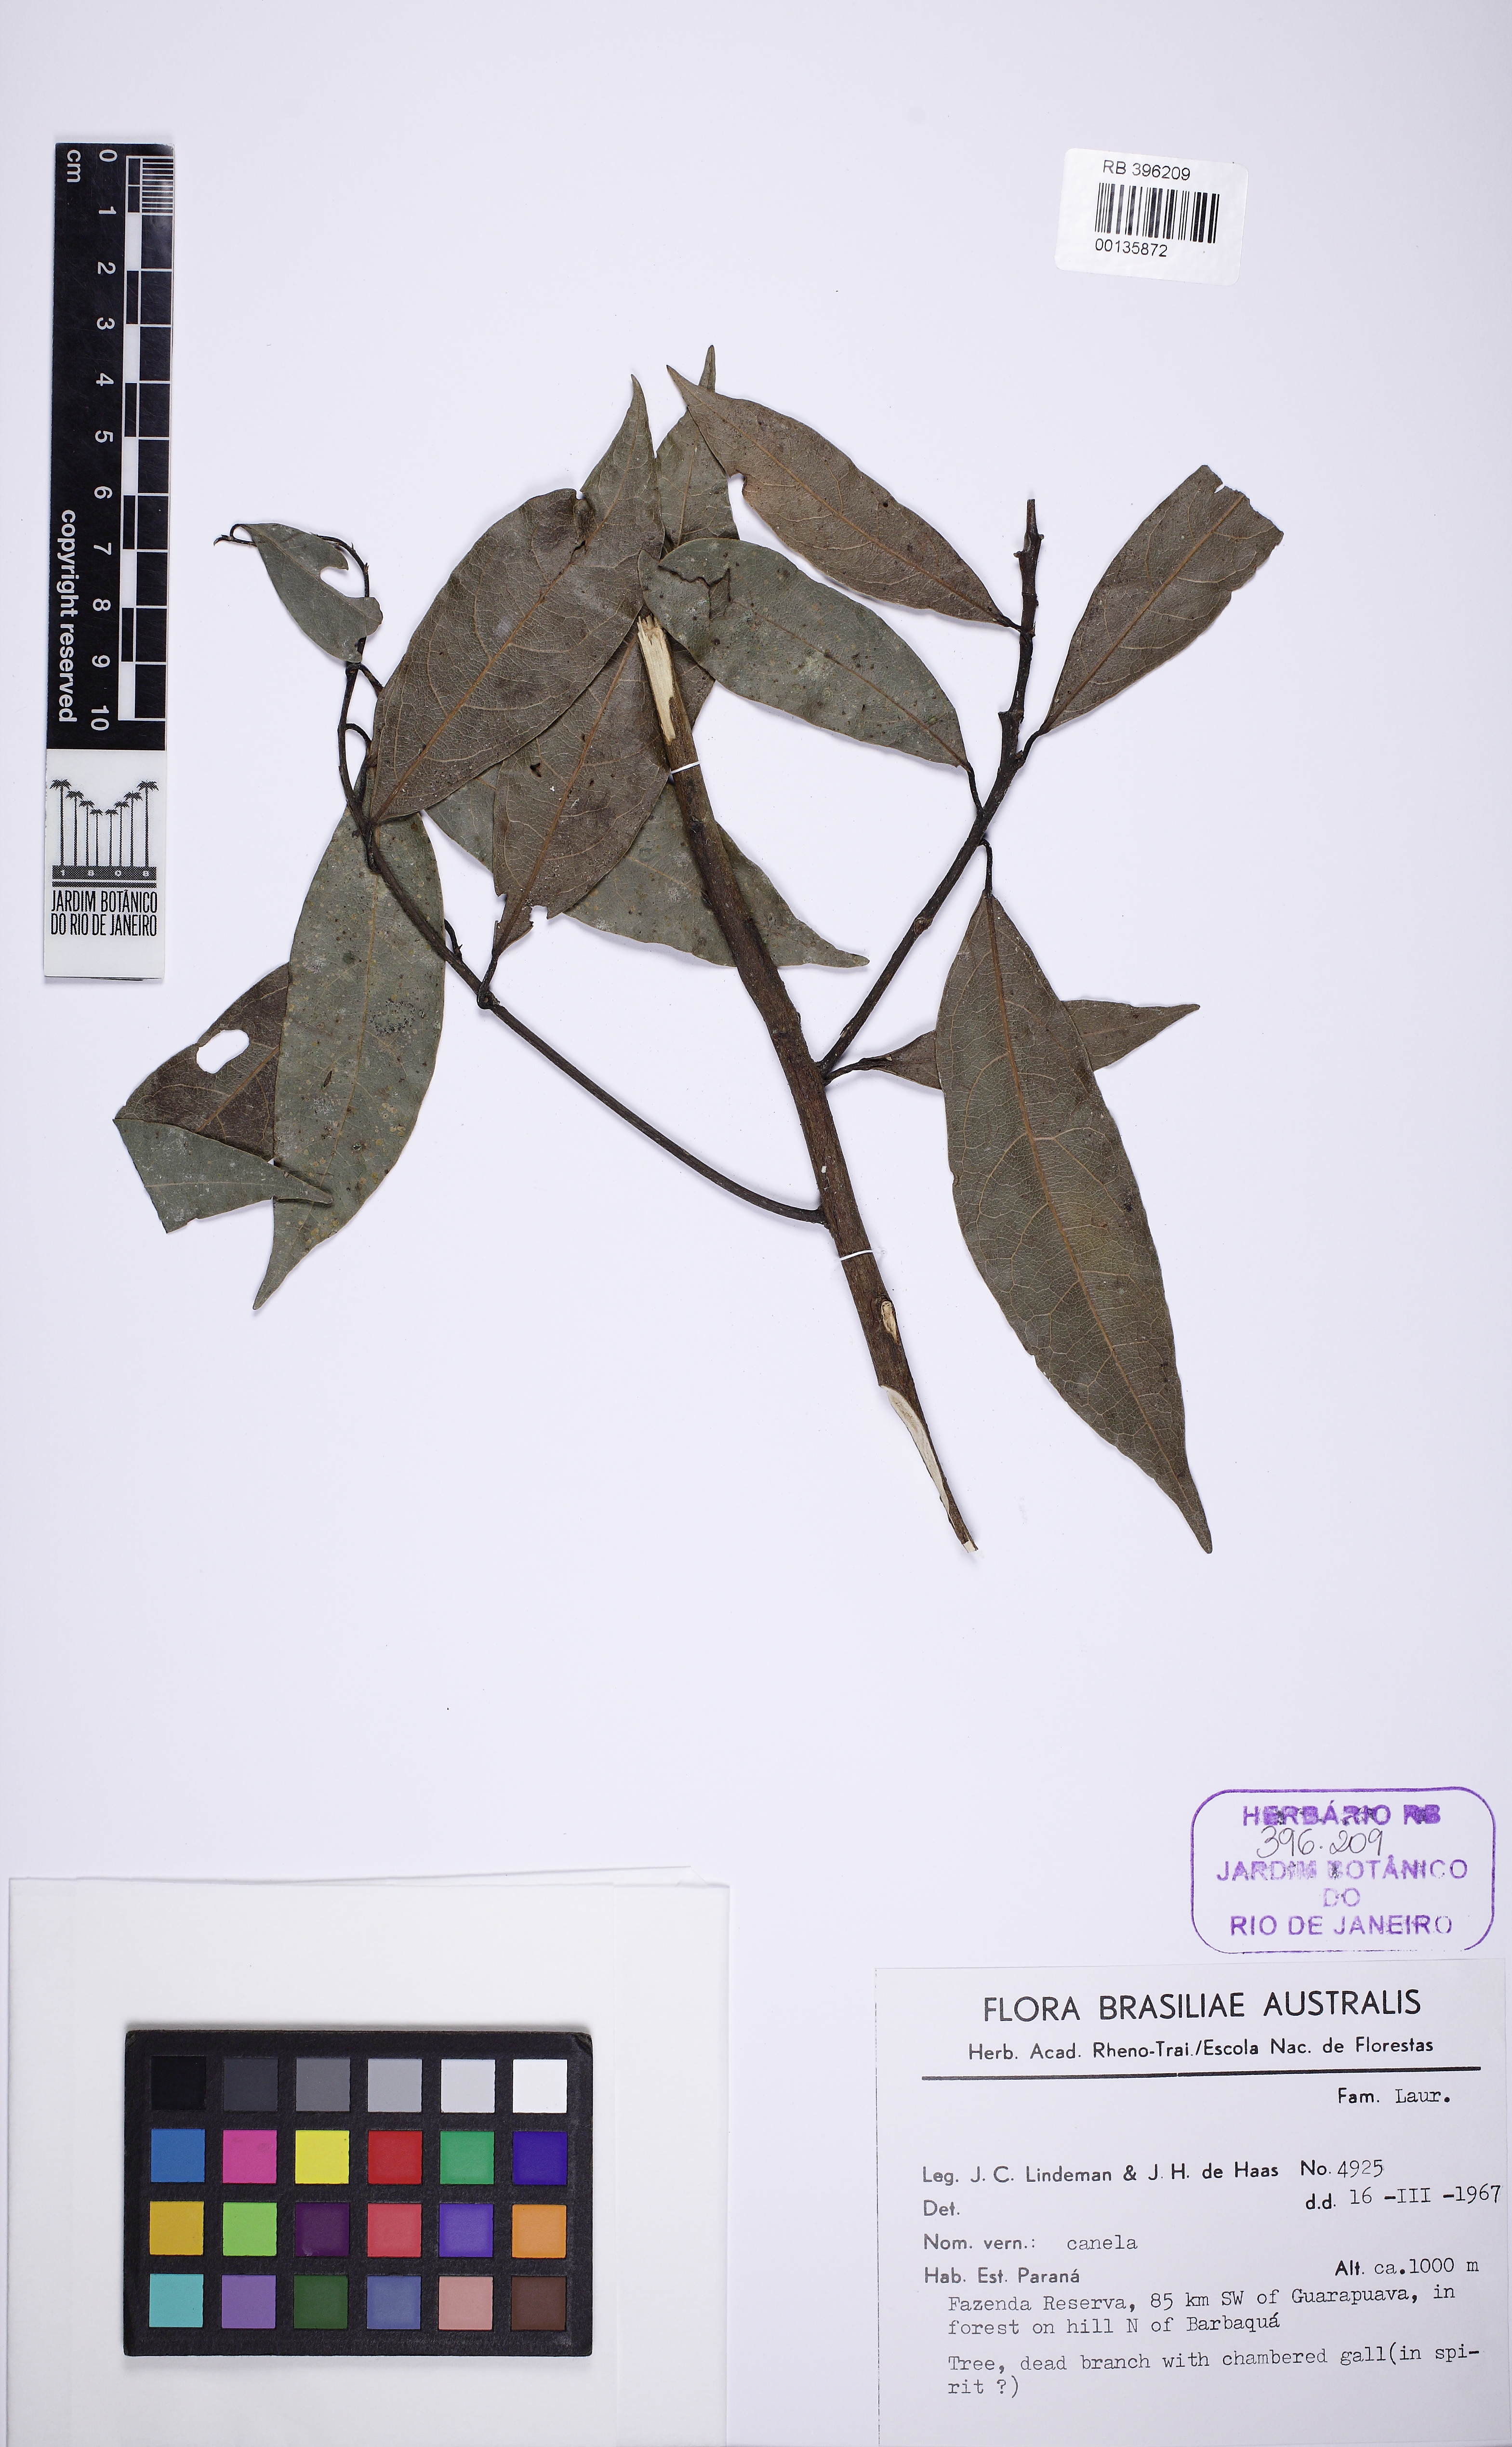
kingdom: Plantae
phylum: Tracheophyta
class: Magnoliopsida
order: Laurales
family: Lauraceae
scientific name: Lauraceae
